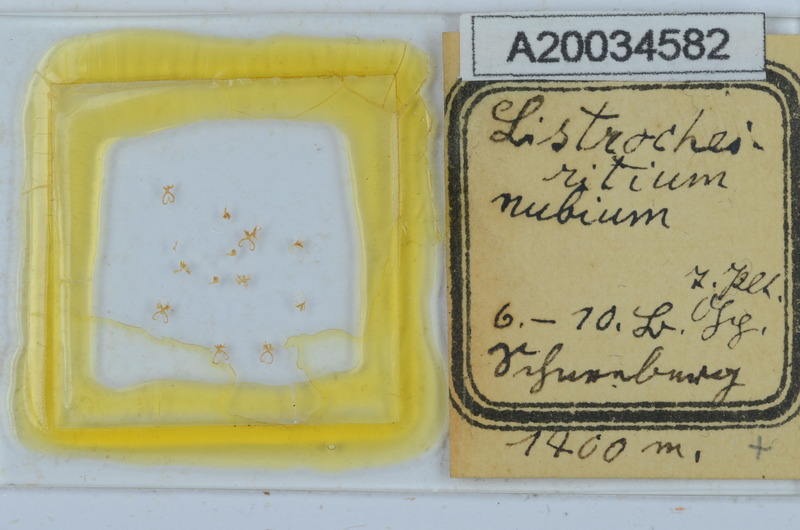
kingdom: Animalia
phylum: Arthropoda
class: Diplopoda
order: Chordeumatida
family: Craspedosomatidae
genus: Listrocheiritium
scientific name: Listrocheiritium nubium
